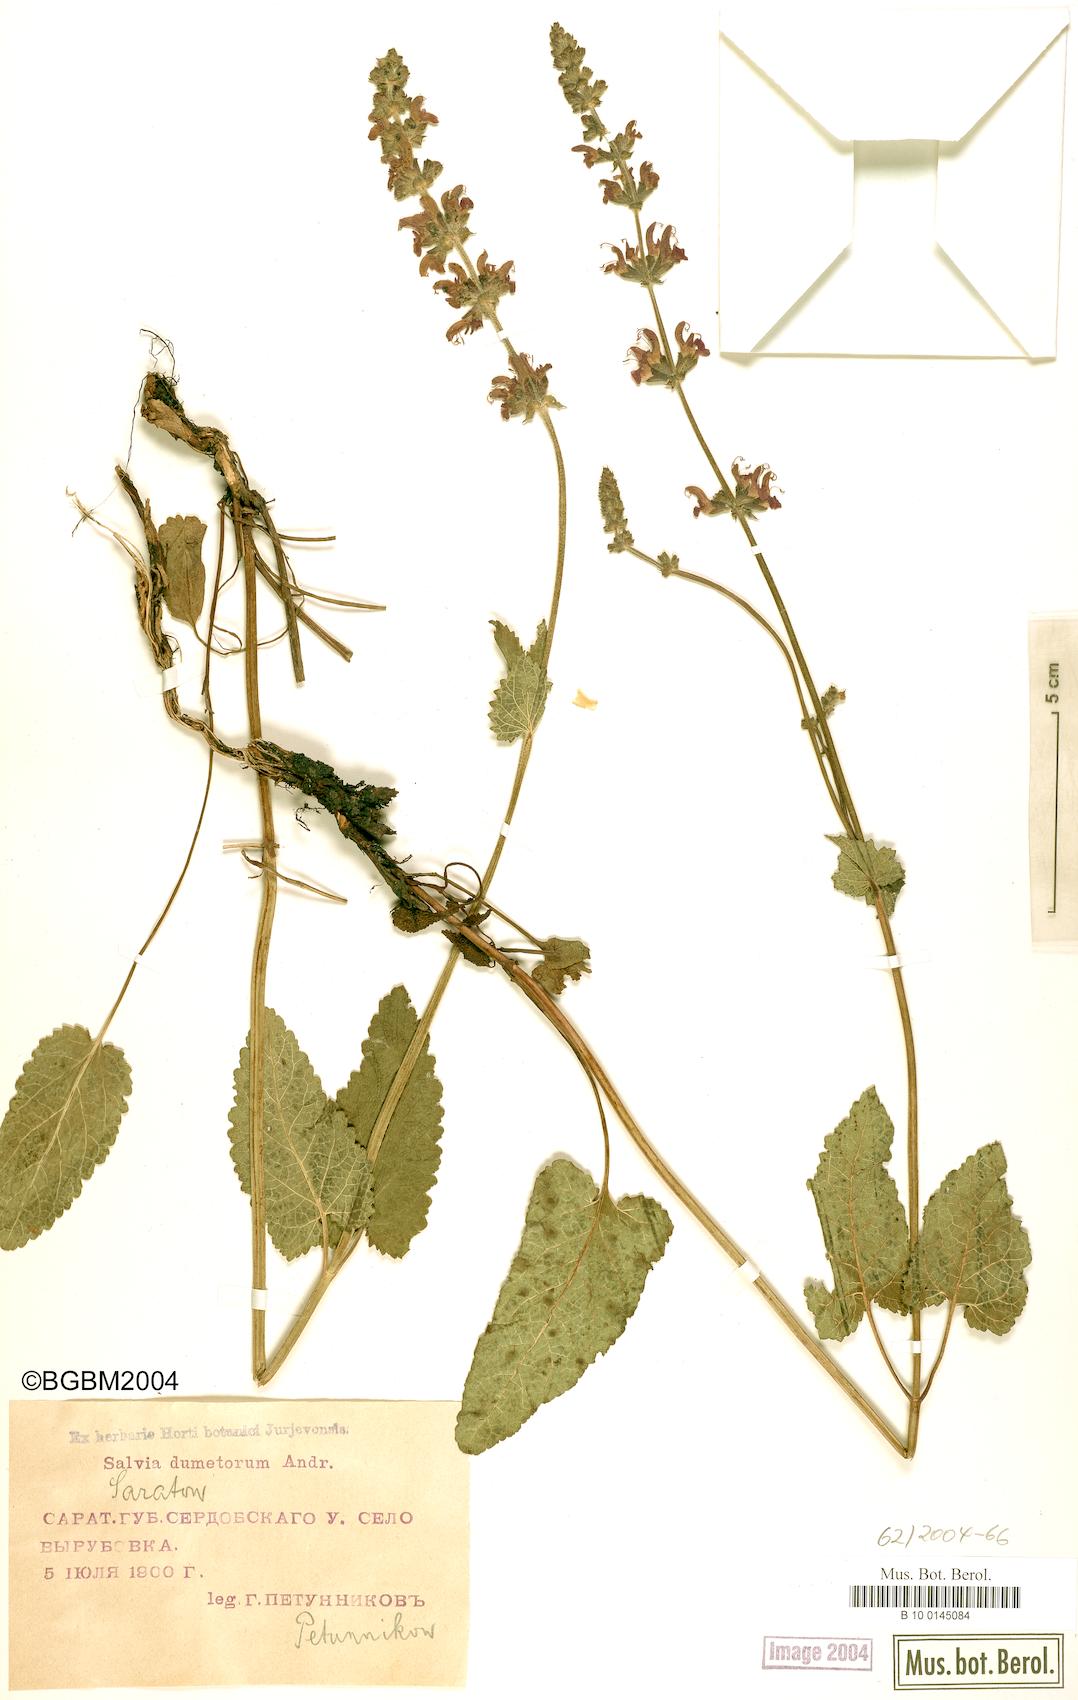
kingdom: Plantae
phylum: Tracheophyta
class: Magnoliopsida
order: Lamiales
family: Lamiaceae
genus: Salvia
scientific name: Salvia dumetorum
